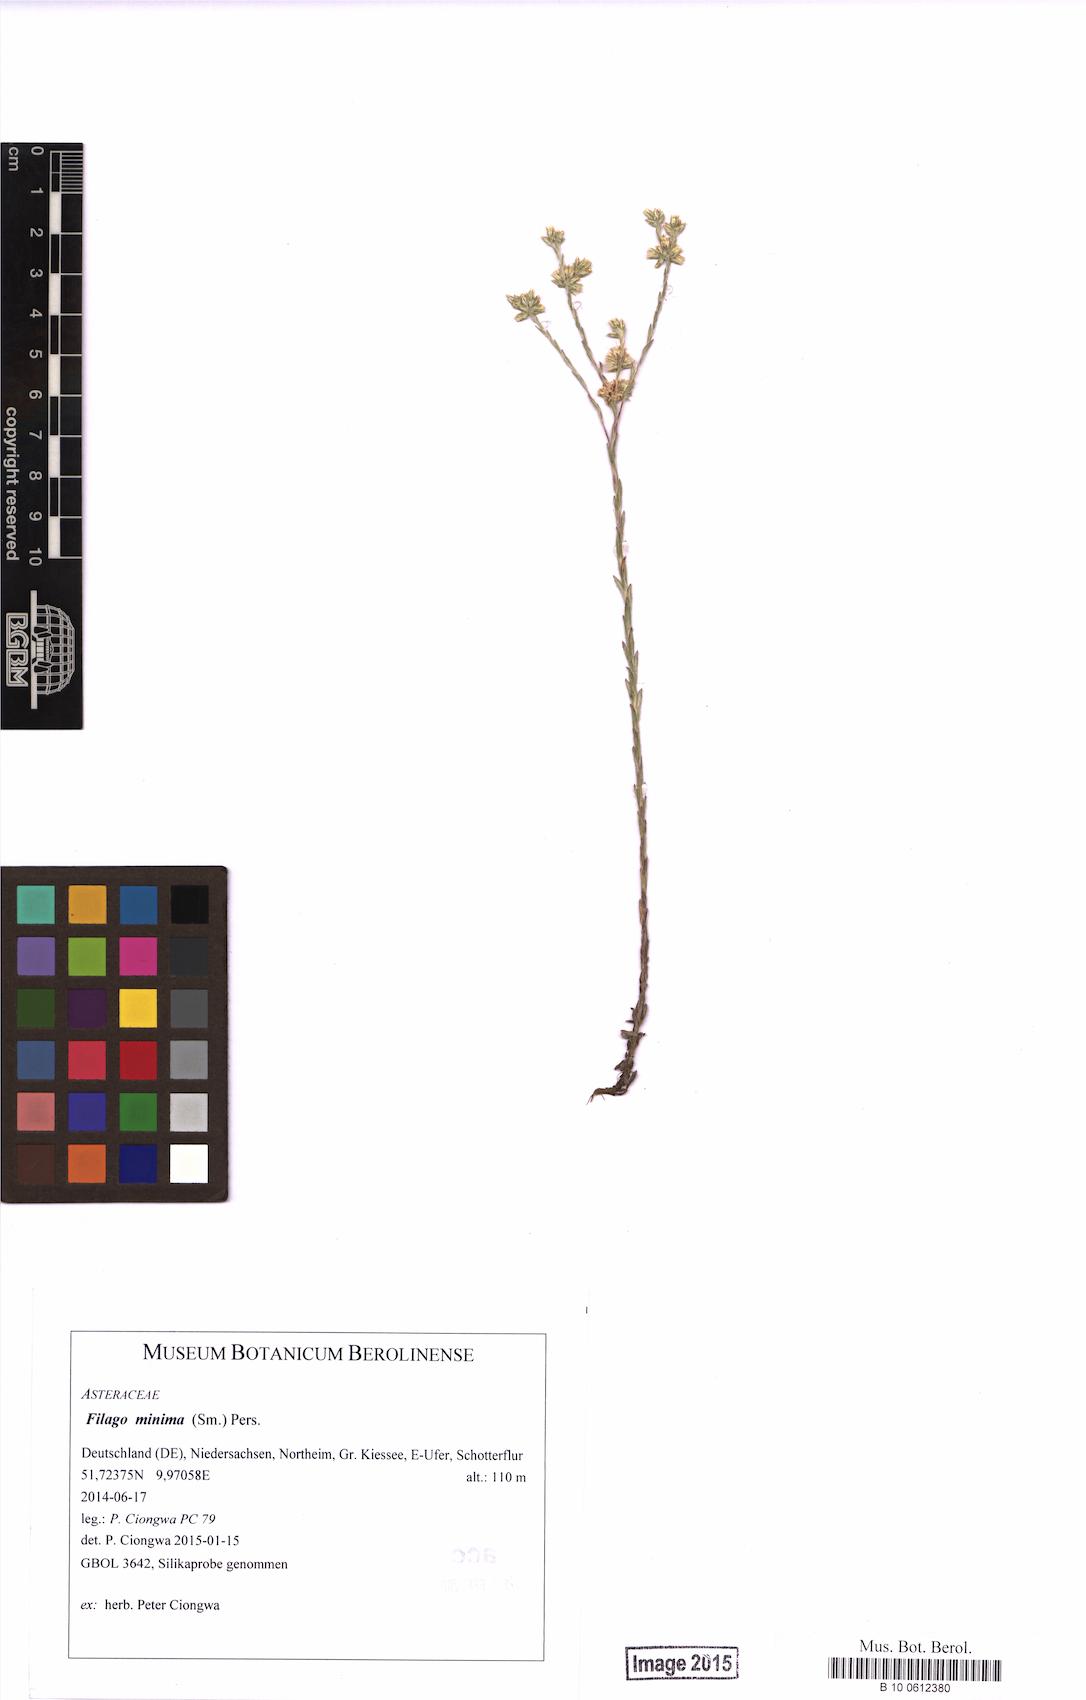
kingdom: Plantae
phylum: Tracheophyta
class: Magnoliopsida
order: Asterales
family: Asteraceae
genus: Logfia
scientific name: Logfia minima
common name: Little cottonrose
